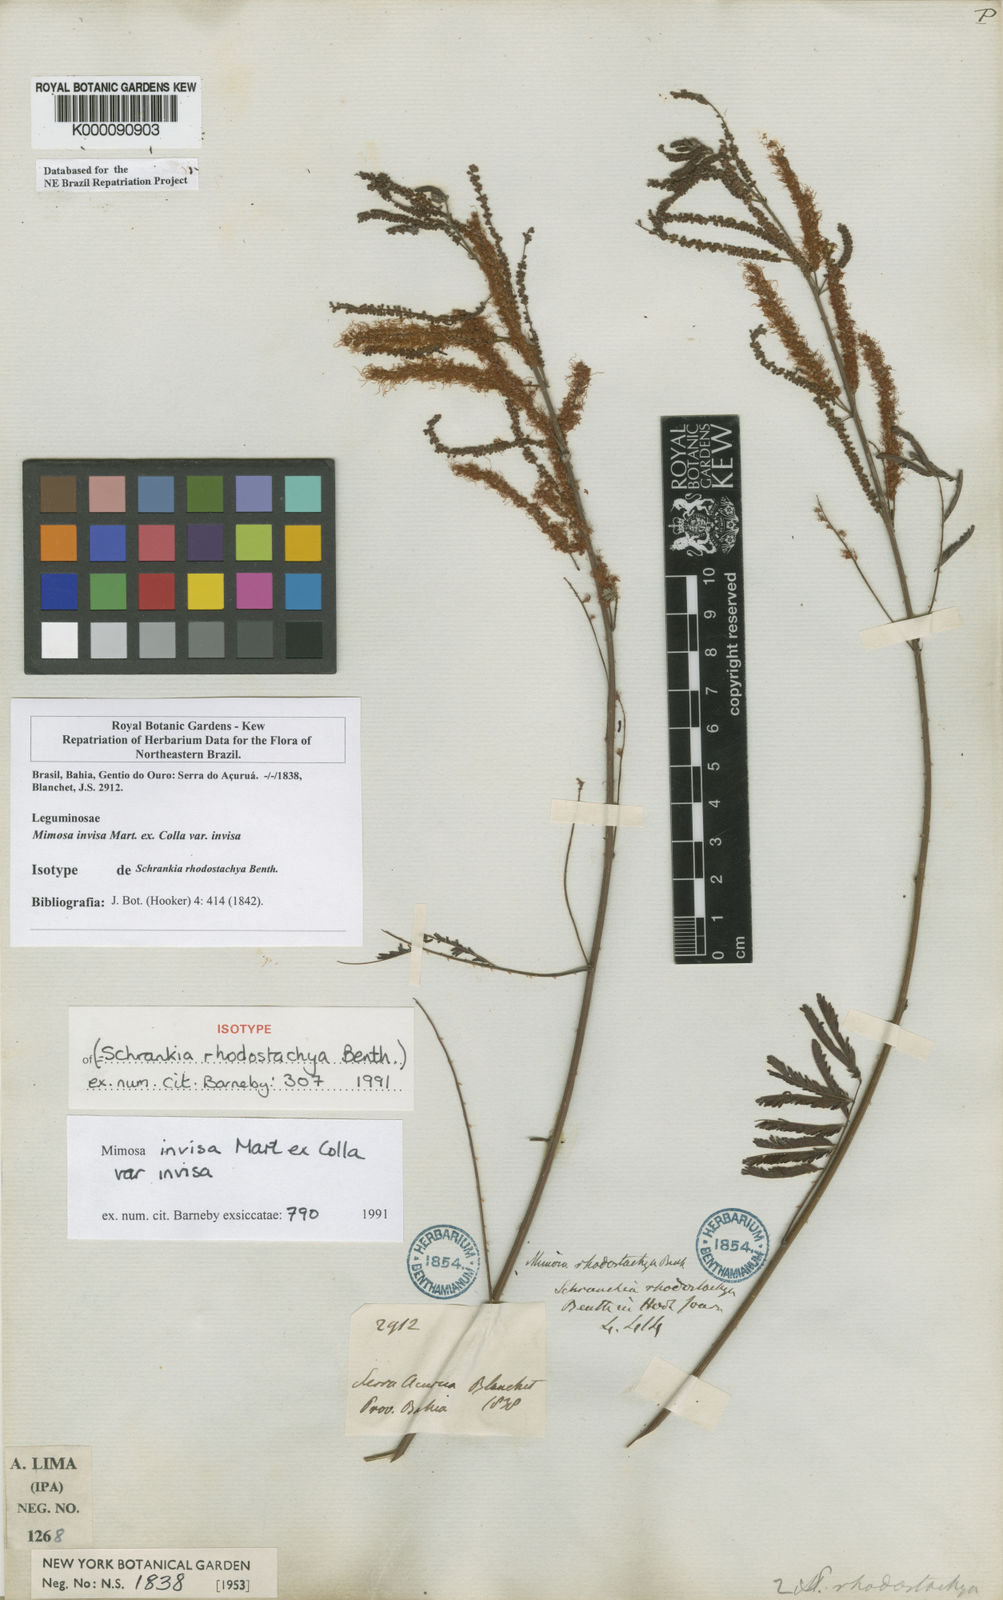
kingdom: Plantae
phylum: Tracheophyta
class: Magnoliopsida
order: Fabales
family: Fabaceae
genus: Mimosa
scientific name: Mimosa invisa
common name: Creeping sensitive-plant
